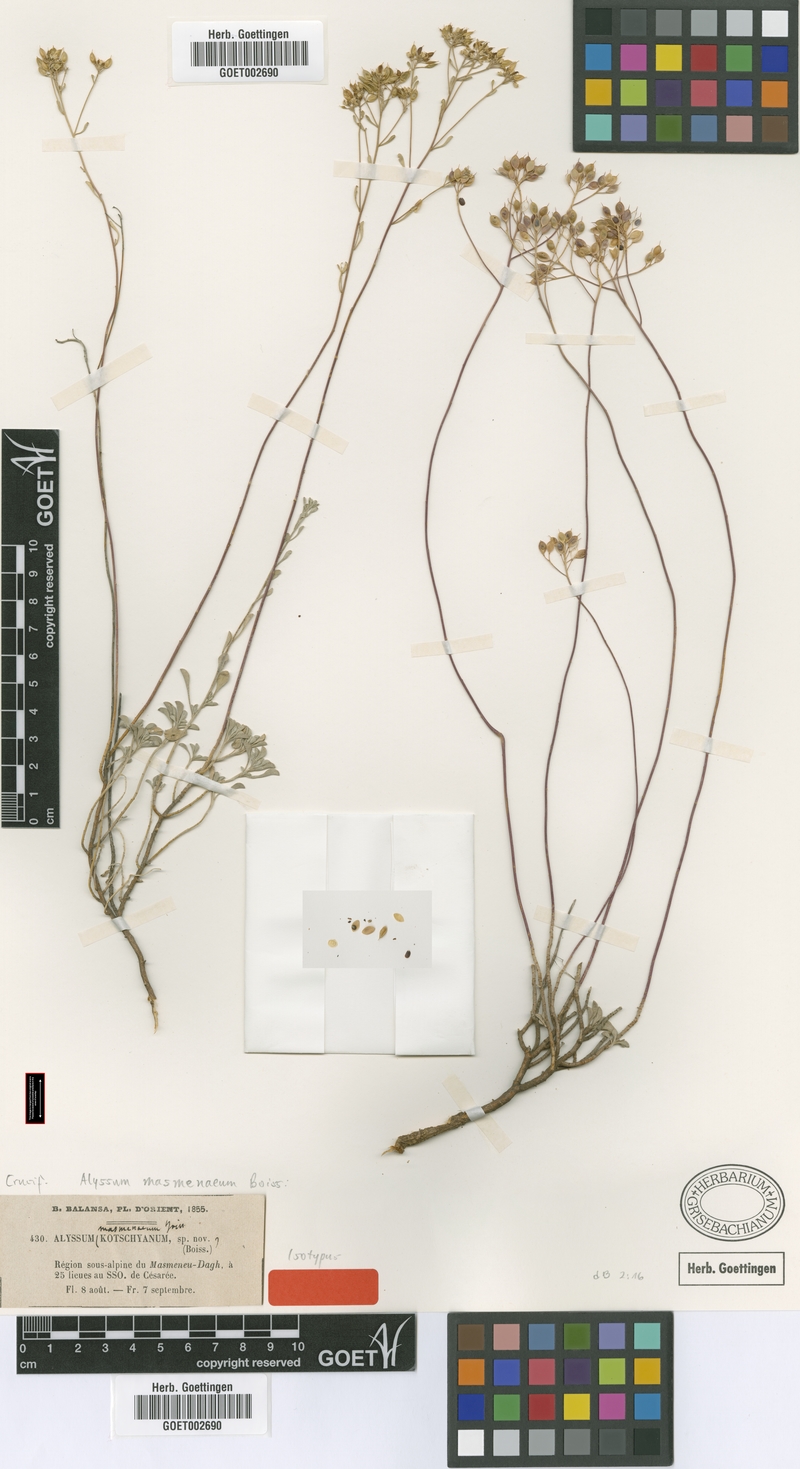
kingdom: Plantae
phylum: Tracheophyta
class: Magnoliopsida
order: Brassicales
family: Brassicaceae
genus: Odontarrhena
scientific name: Odontarrhena masmenaea
